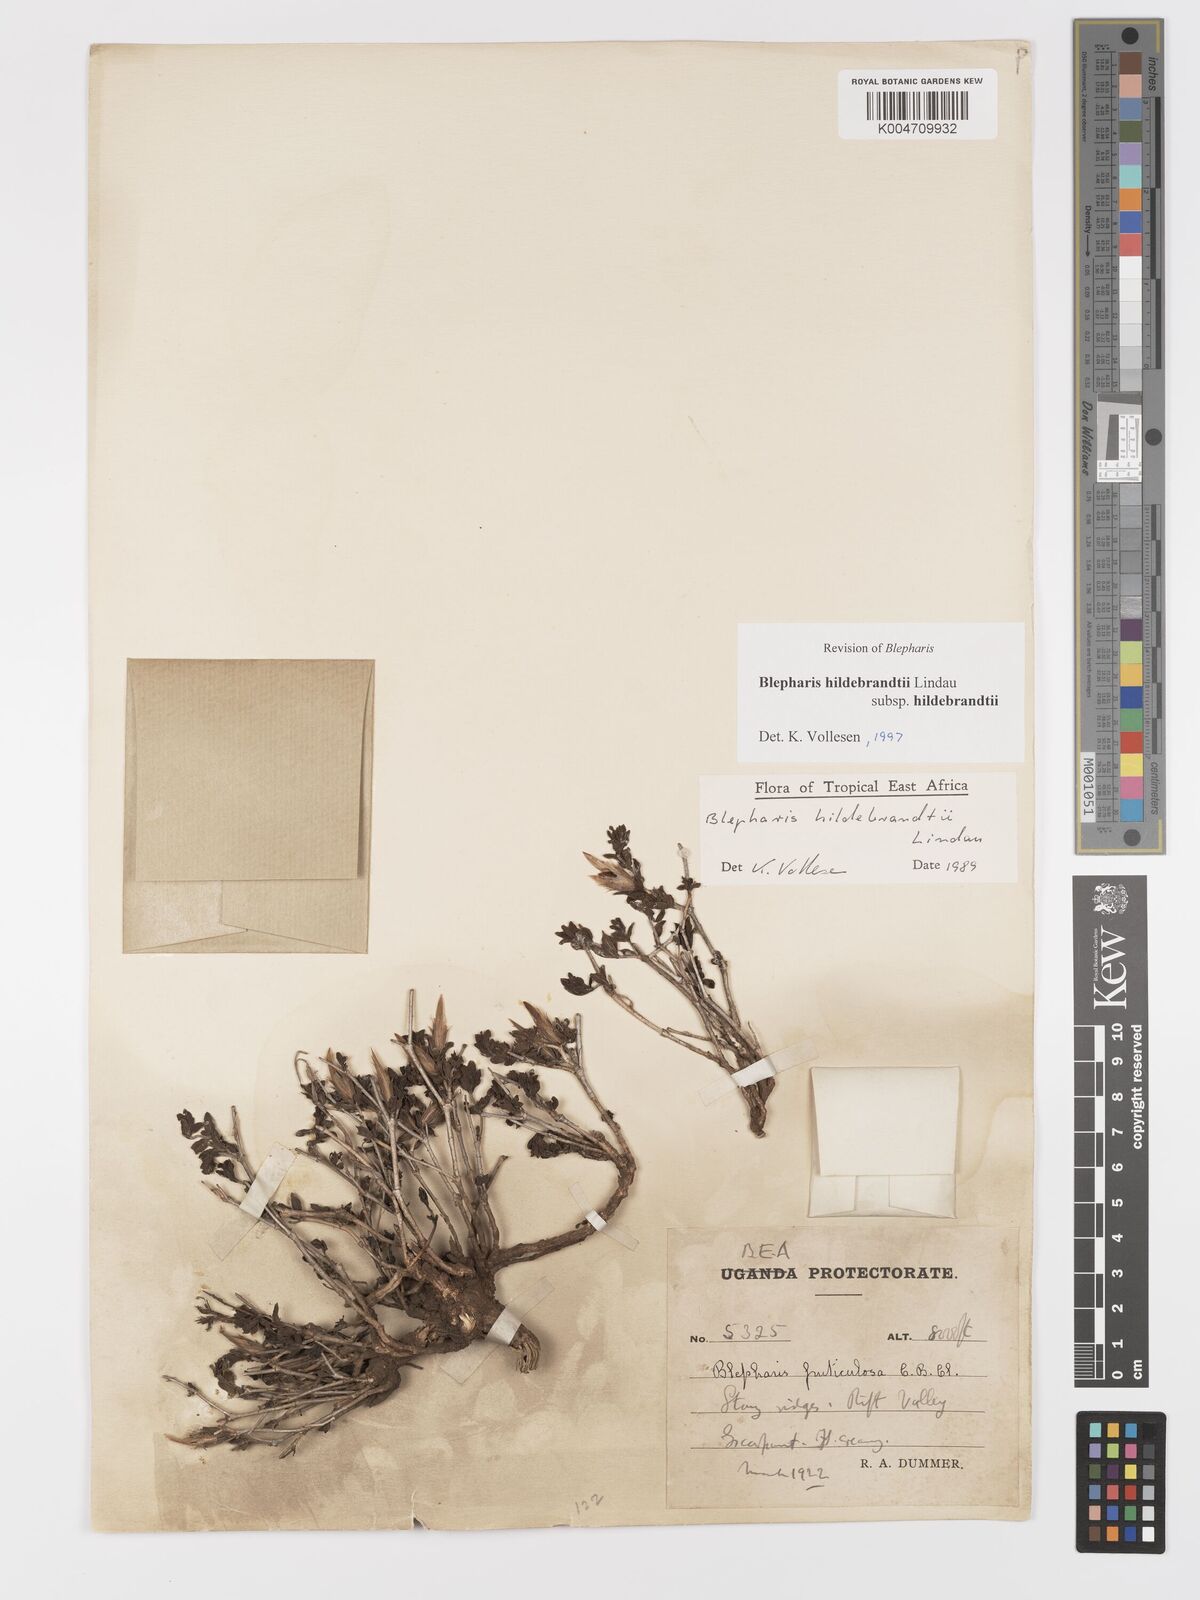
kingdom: Plantae
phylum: Tracheophyta
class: Magnoliopsida
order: Lamiales
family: Acanthaceae
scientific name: Acanthaceae
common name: Acanthaceae
